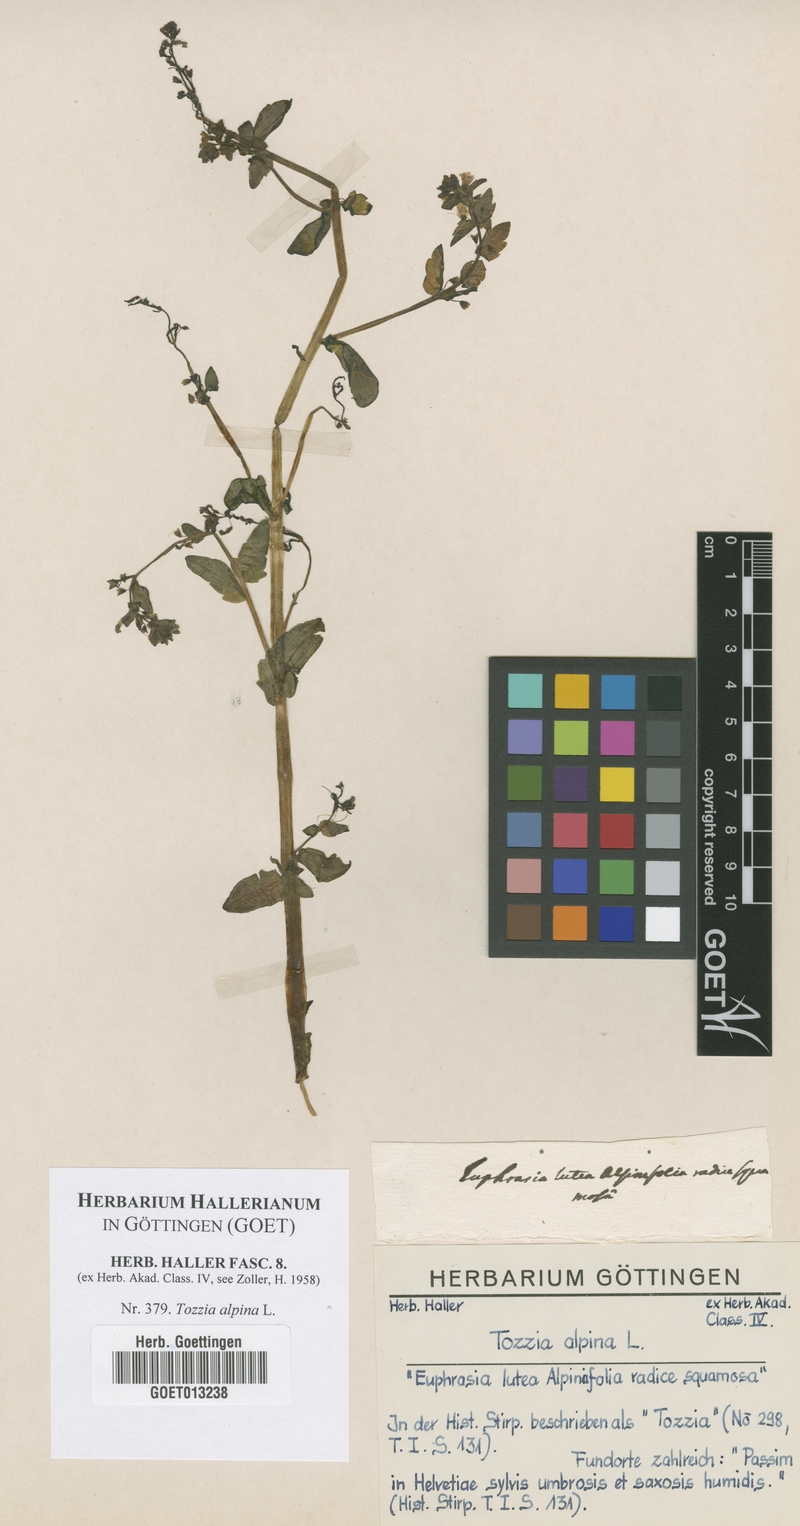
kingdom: Plantae
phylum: Tracheophyta
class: Magnoliopsida
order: Lamiales
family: Orobanchaceae
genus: Tozzia
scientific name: Tozzia alpina
